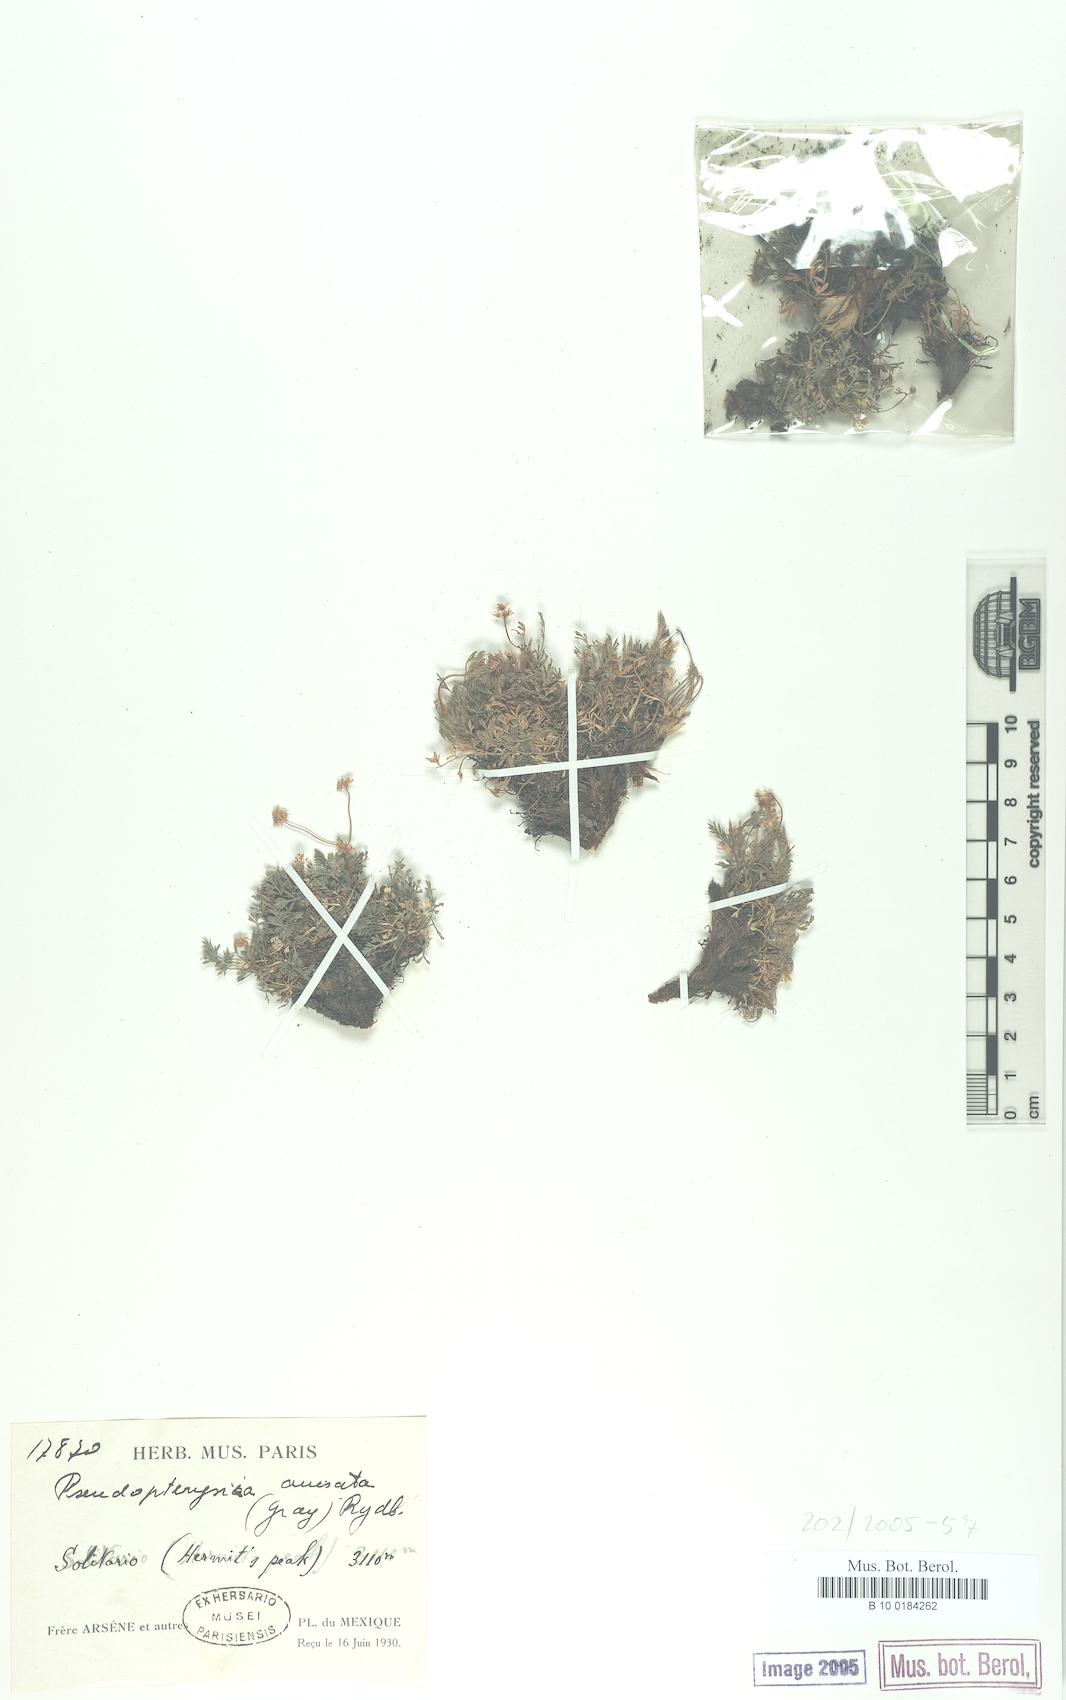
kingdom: Plantae
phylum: Tracheophyta
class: Magnoliopsida
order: Apiales
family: Apiaceae
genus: Cymopterus
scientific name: Cymopterus anisatus
